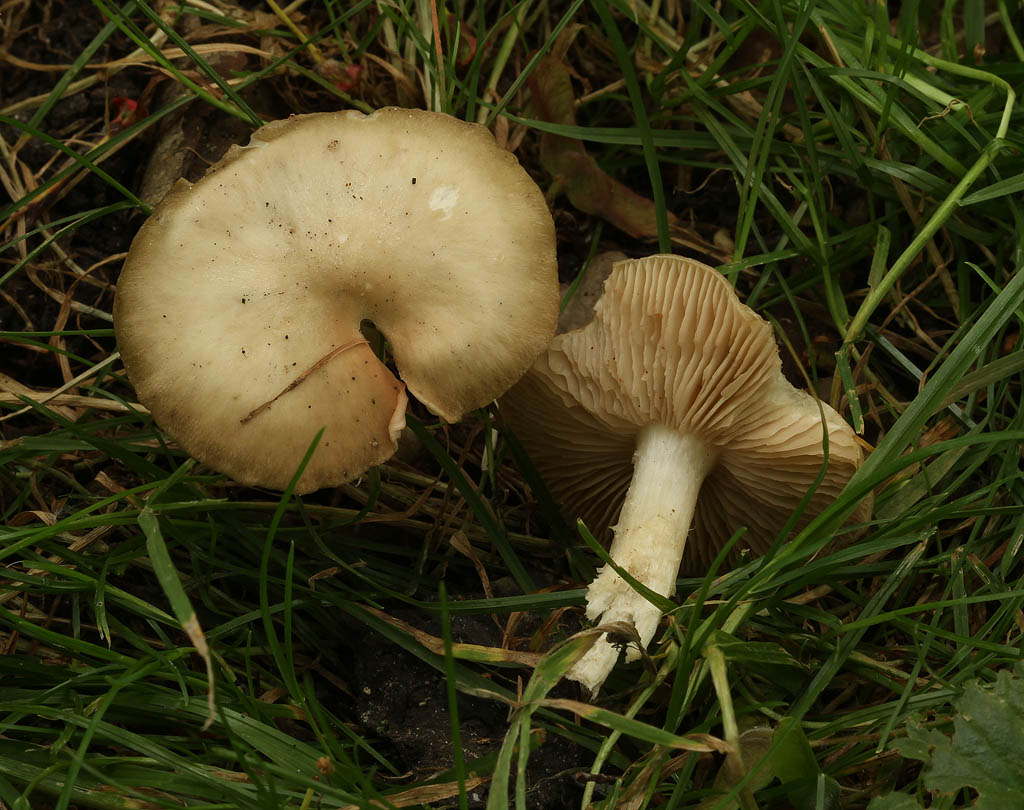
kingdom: Fungi
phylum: Basidiomycota
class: Agaricomycetes
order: Agaricales
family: Entolomataceae
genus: Entoloma
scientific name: Entoloma clypeatum
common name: flammet rødblad
